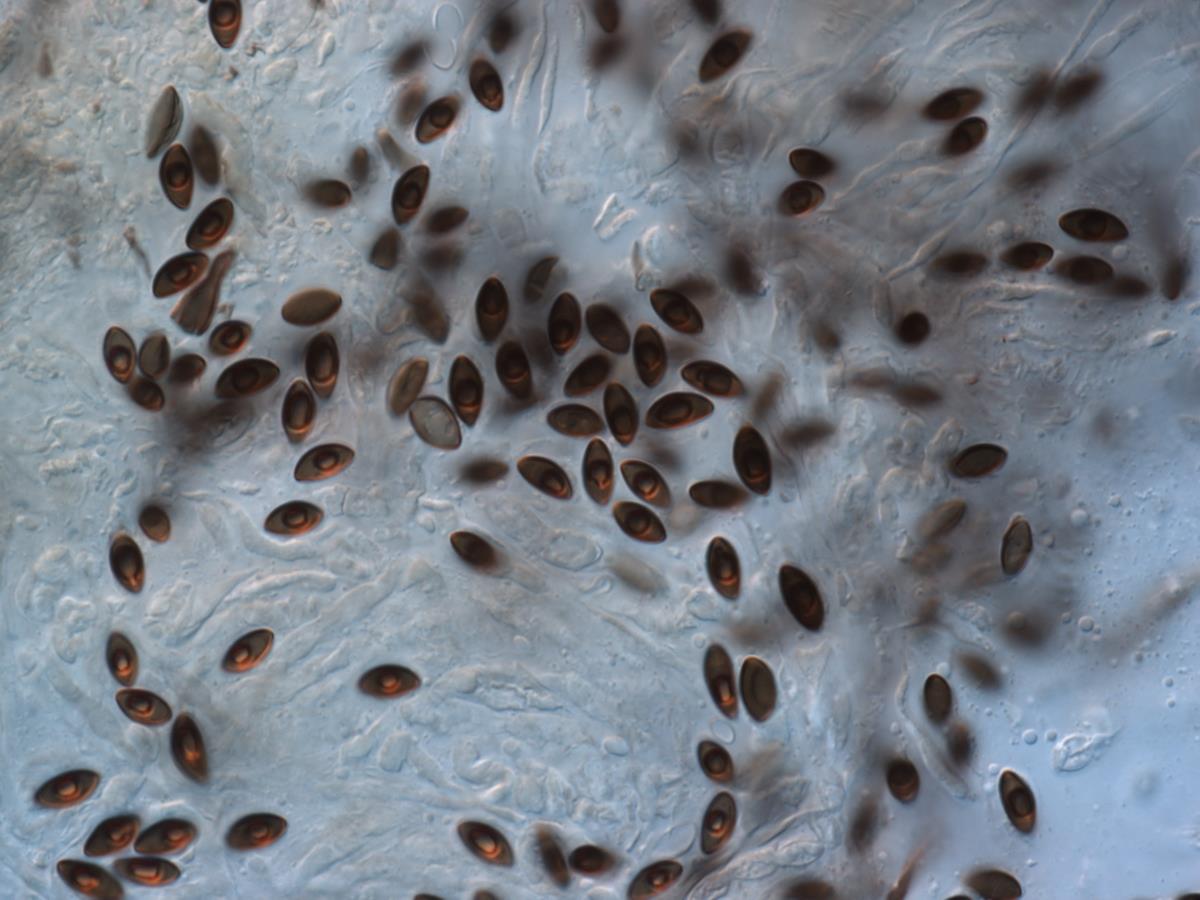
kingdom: Fungi
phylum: Ascomycota
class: Sordariomycetes
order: Xylariales
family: Hypoxylaceae
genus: Hypoxylon
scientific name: Hypoxylon
